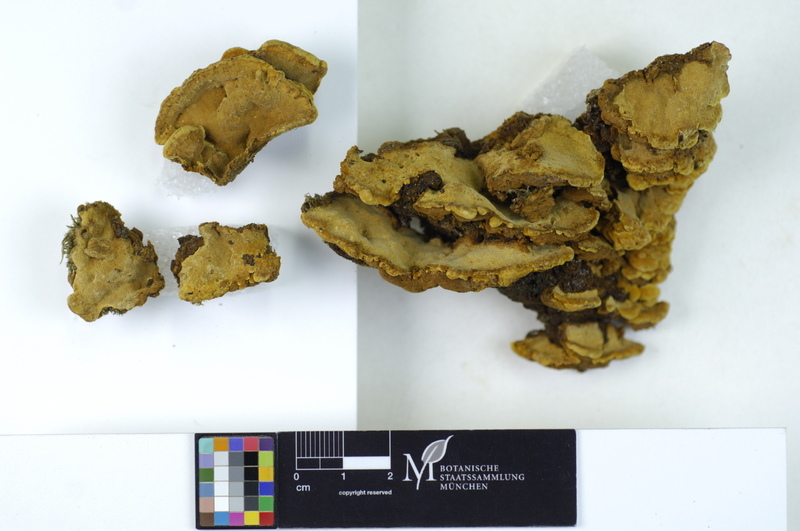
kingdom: Plantae
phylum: Tracheophyta
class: Magnoliopsida
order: Celastrales
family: Celastraceae
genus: Euonymus
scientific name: Euonymus
